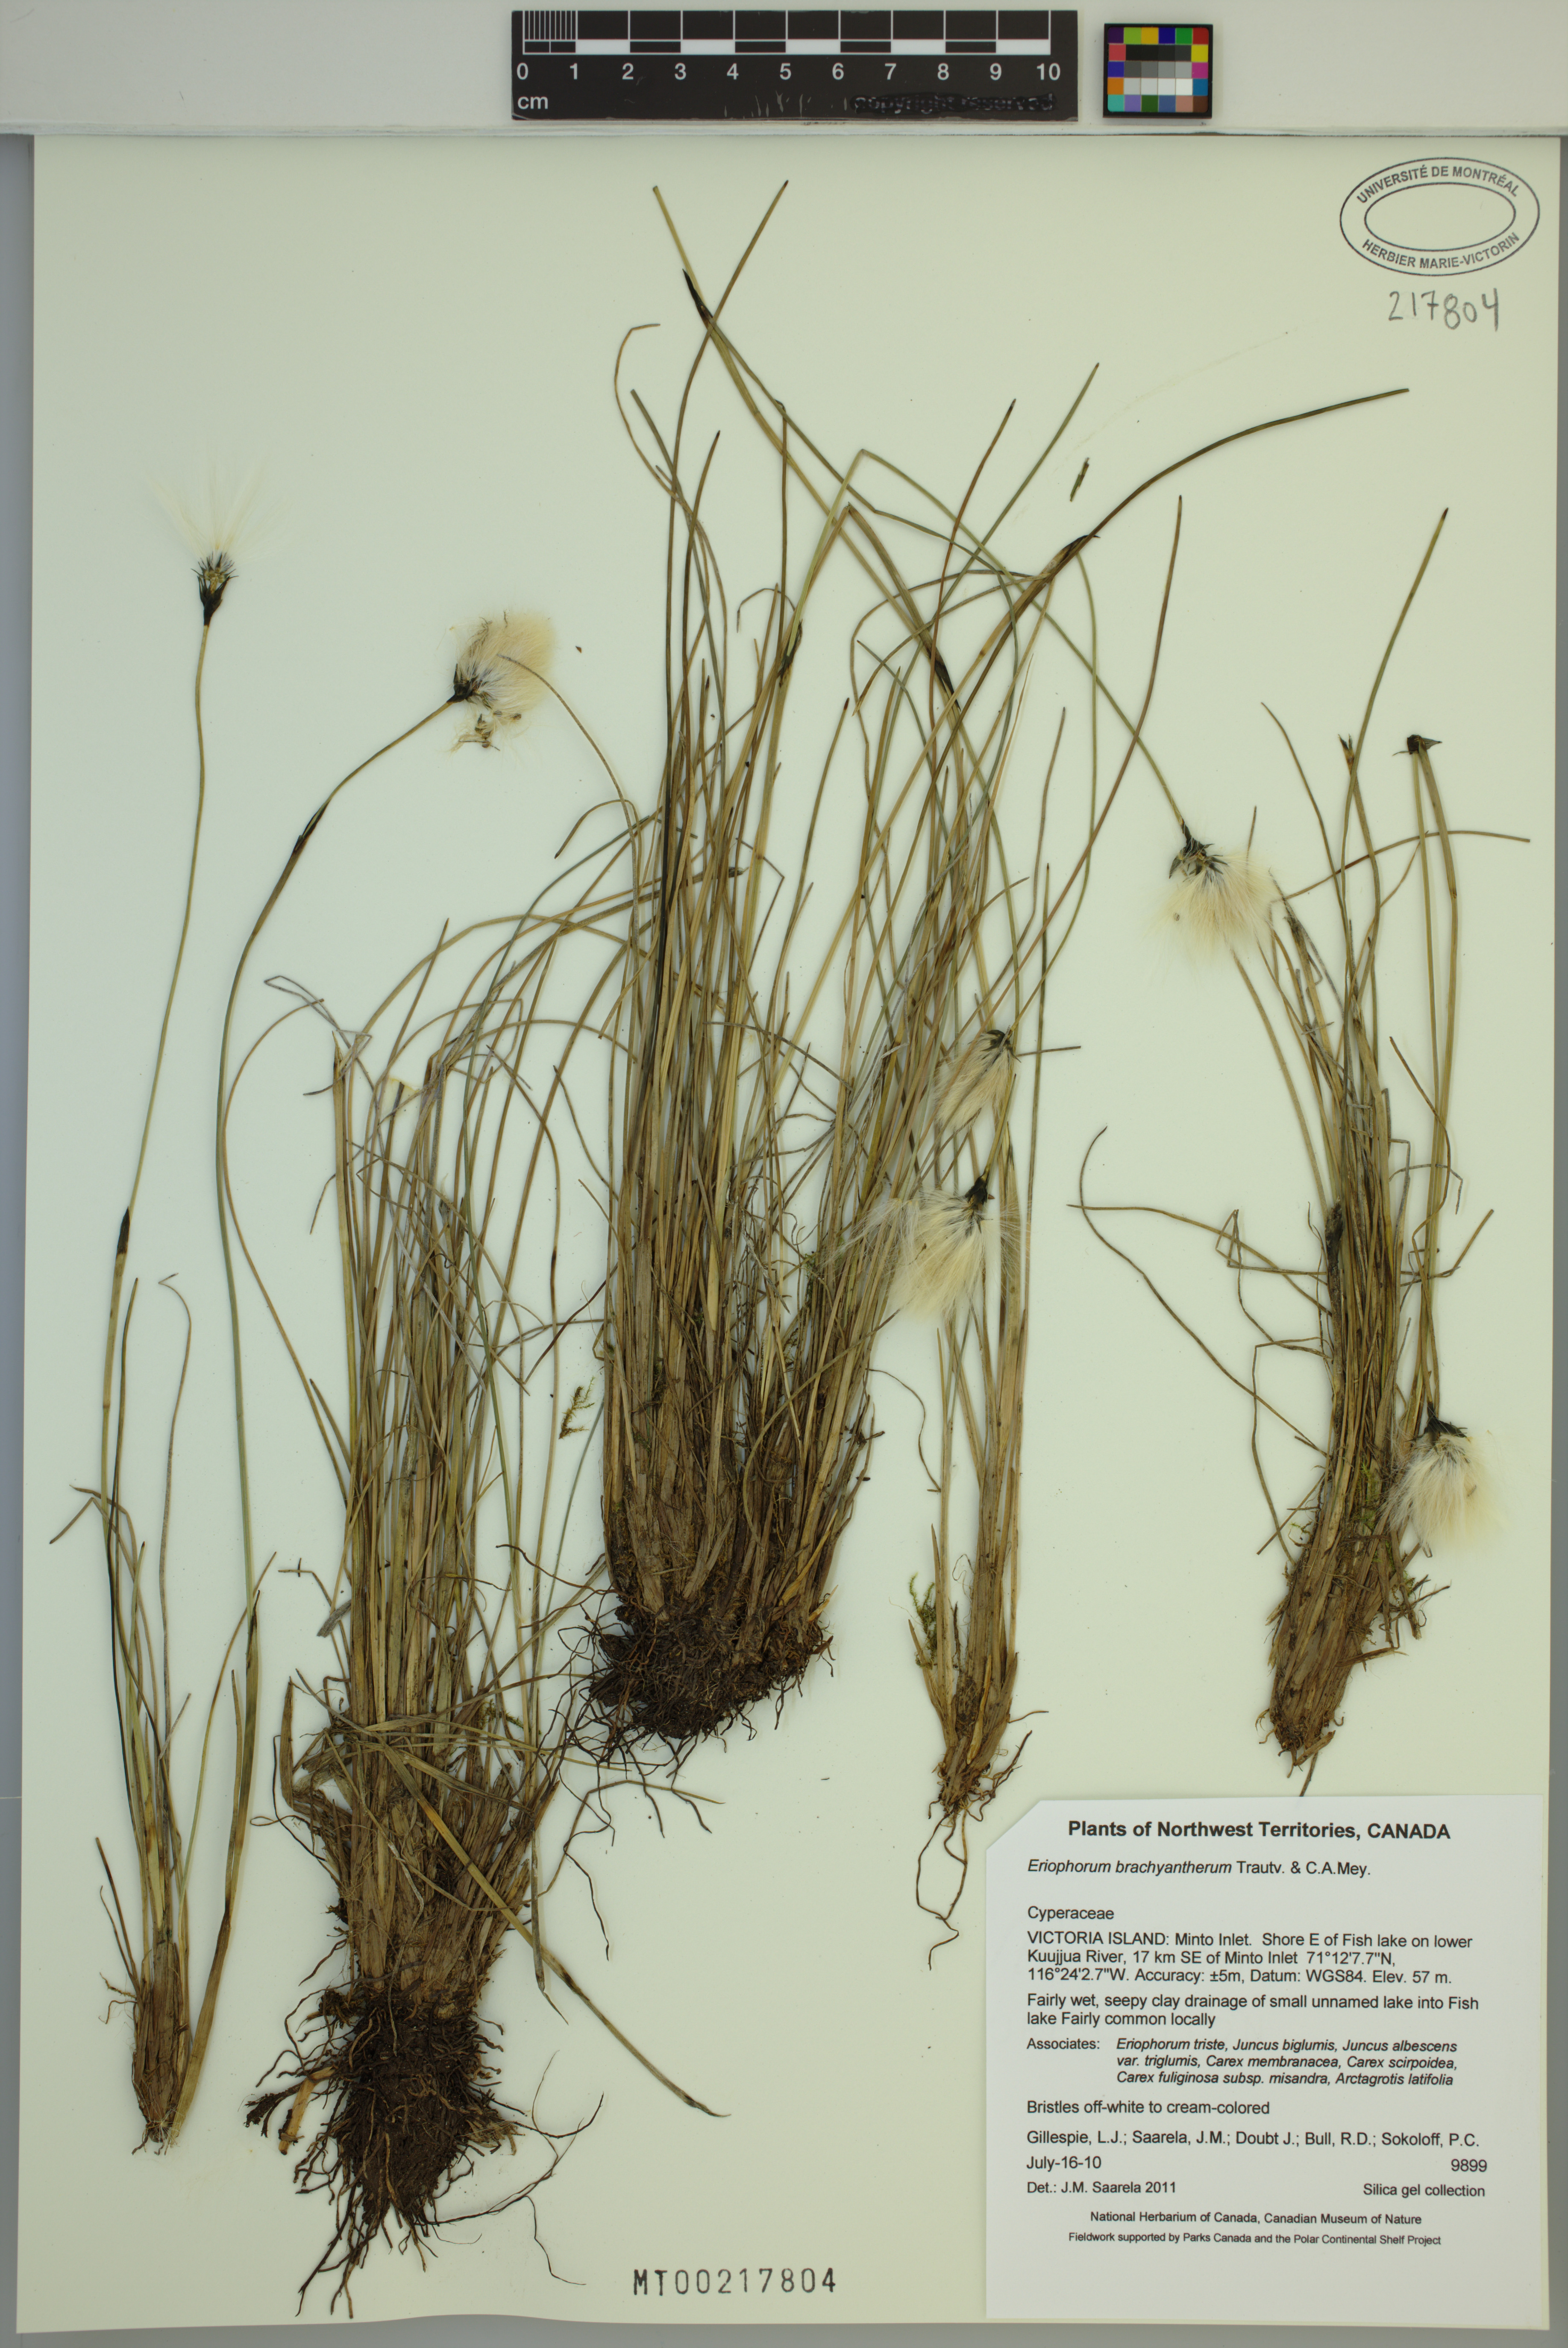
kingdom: Plantae
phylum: Tracheophyta
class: Liliopsida
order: Poales
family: Cyperaceae
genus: Eriophorum
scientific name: Eriophorum brachyantherum
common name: Closed-sheathed cottongrass
